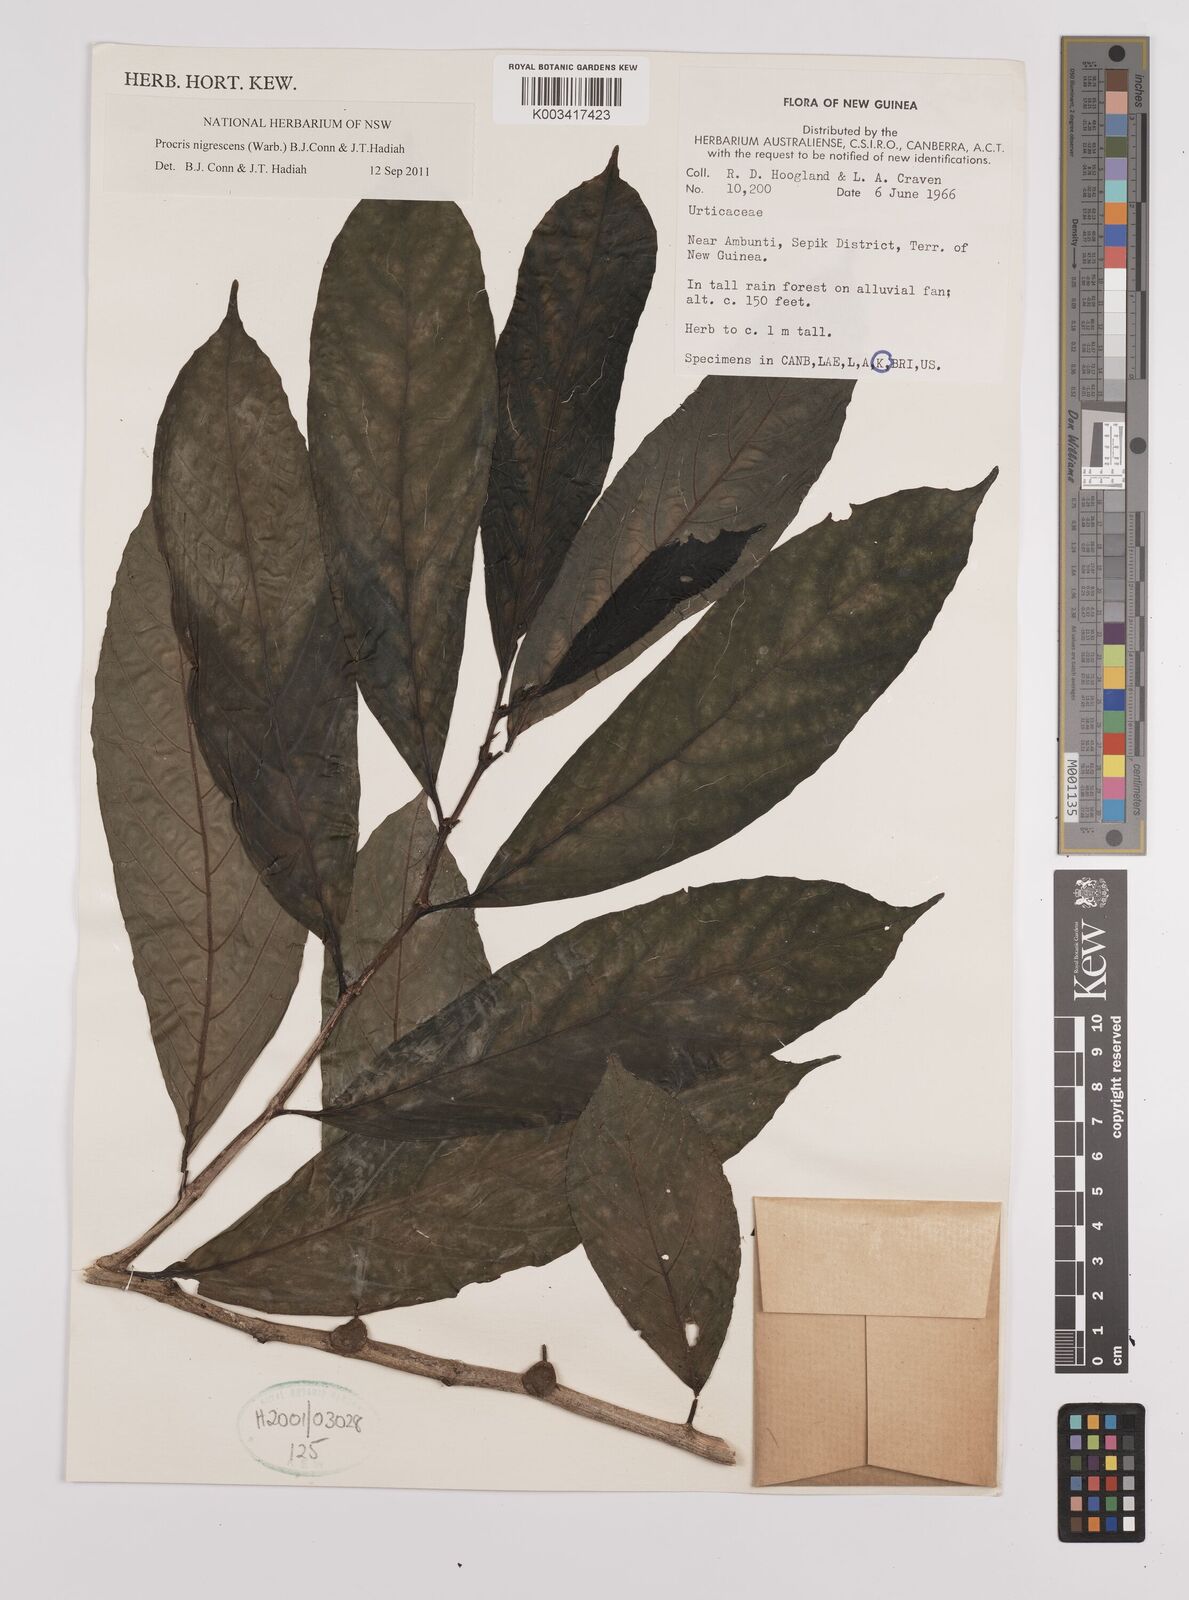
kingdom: Plantae
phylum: Tracheophyta
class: Magnoliopsida
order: Rosales
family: Urticaceae
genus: Procris
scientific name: Procris
